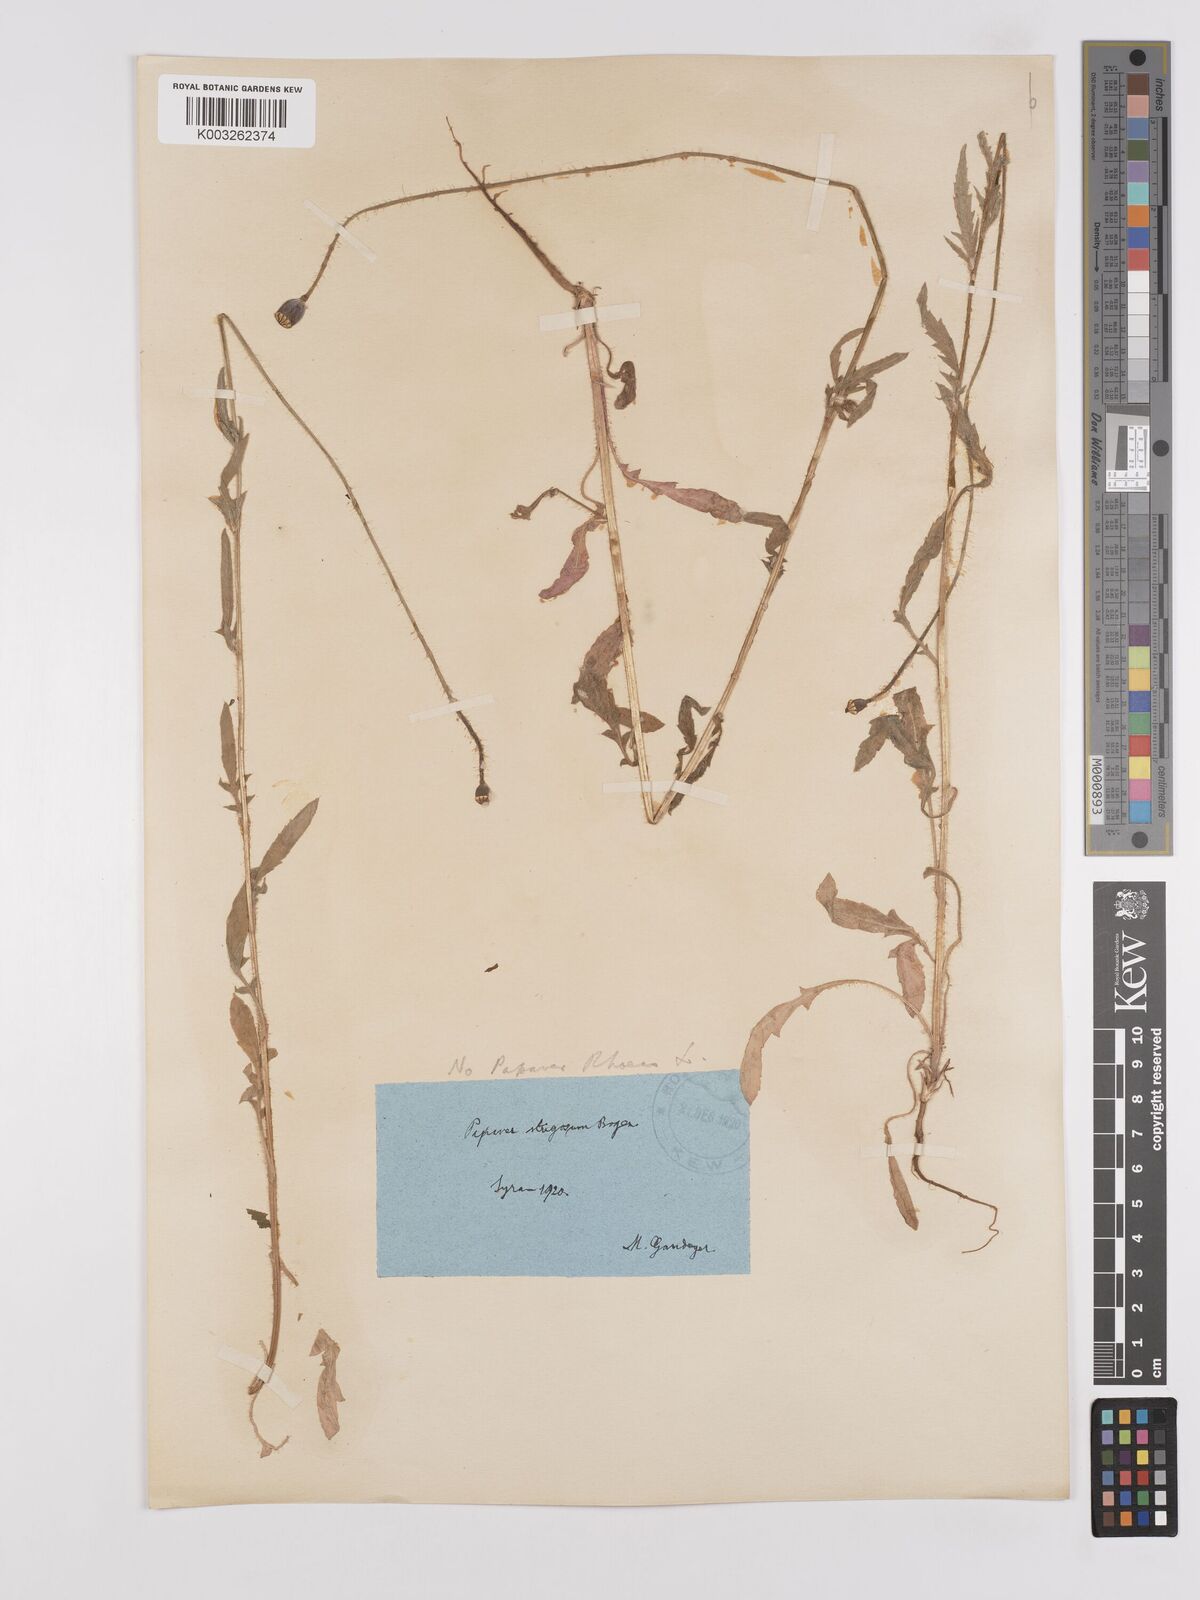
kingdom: Plantae
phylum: Tracheophyta
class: Magnoliopsida
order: Ranunculales
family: Papaveraceae
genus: Papaver
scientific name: Papaver rhoeas
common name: Corn poppy
